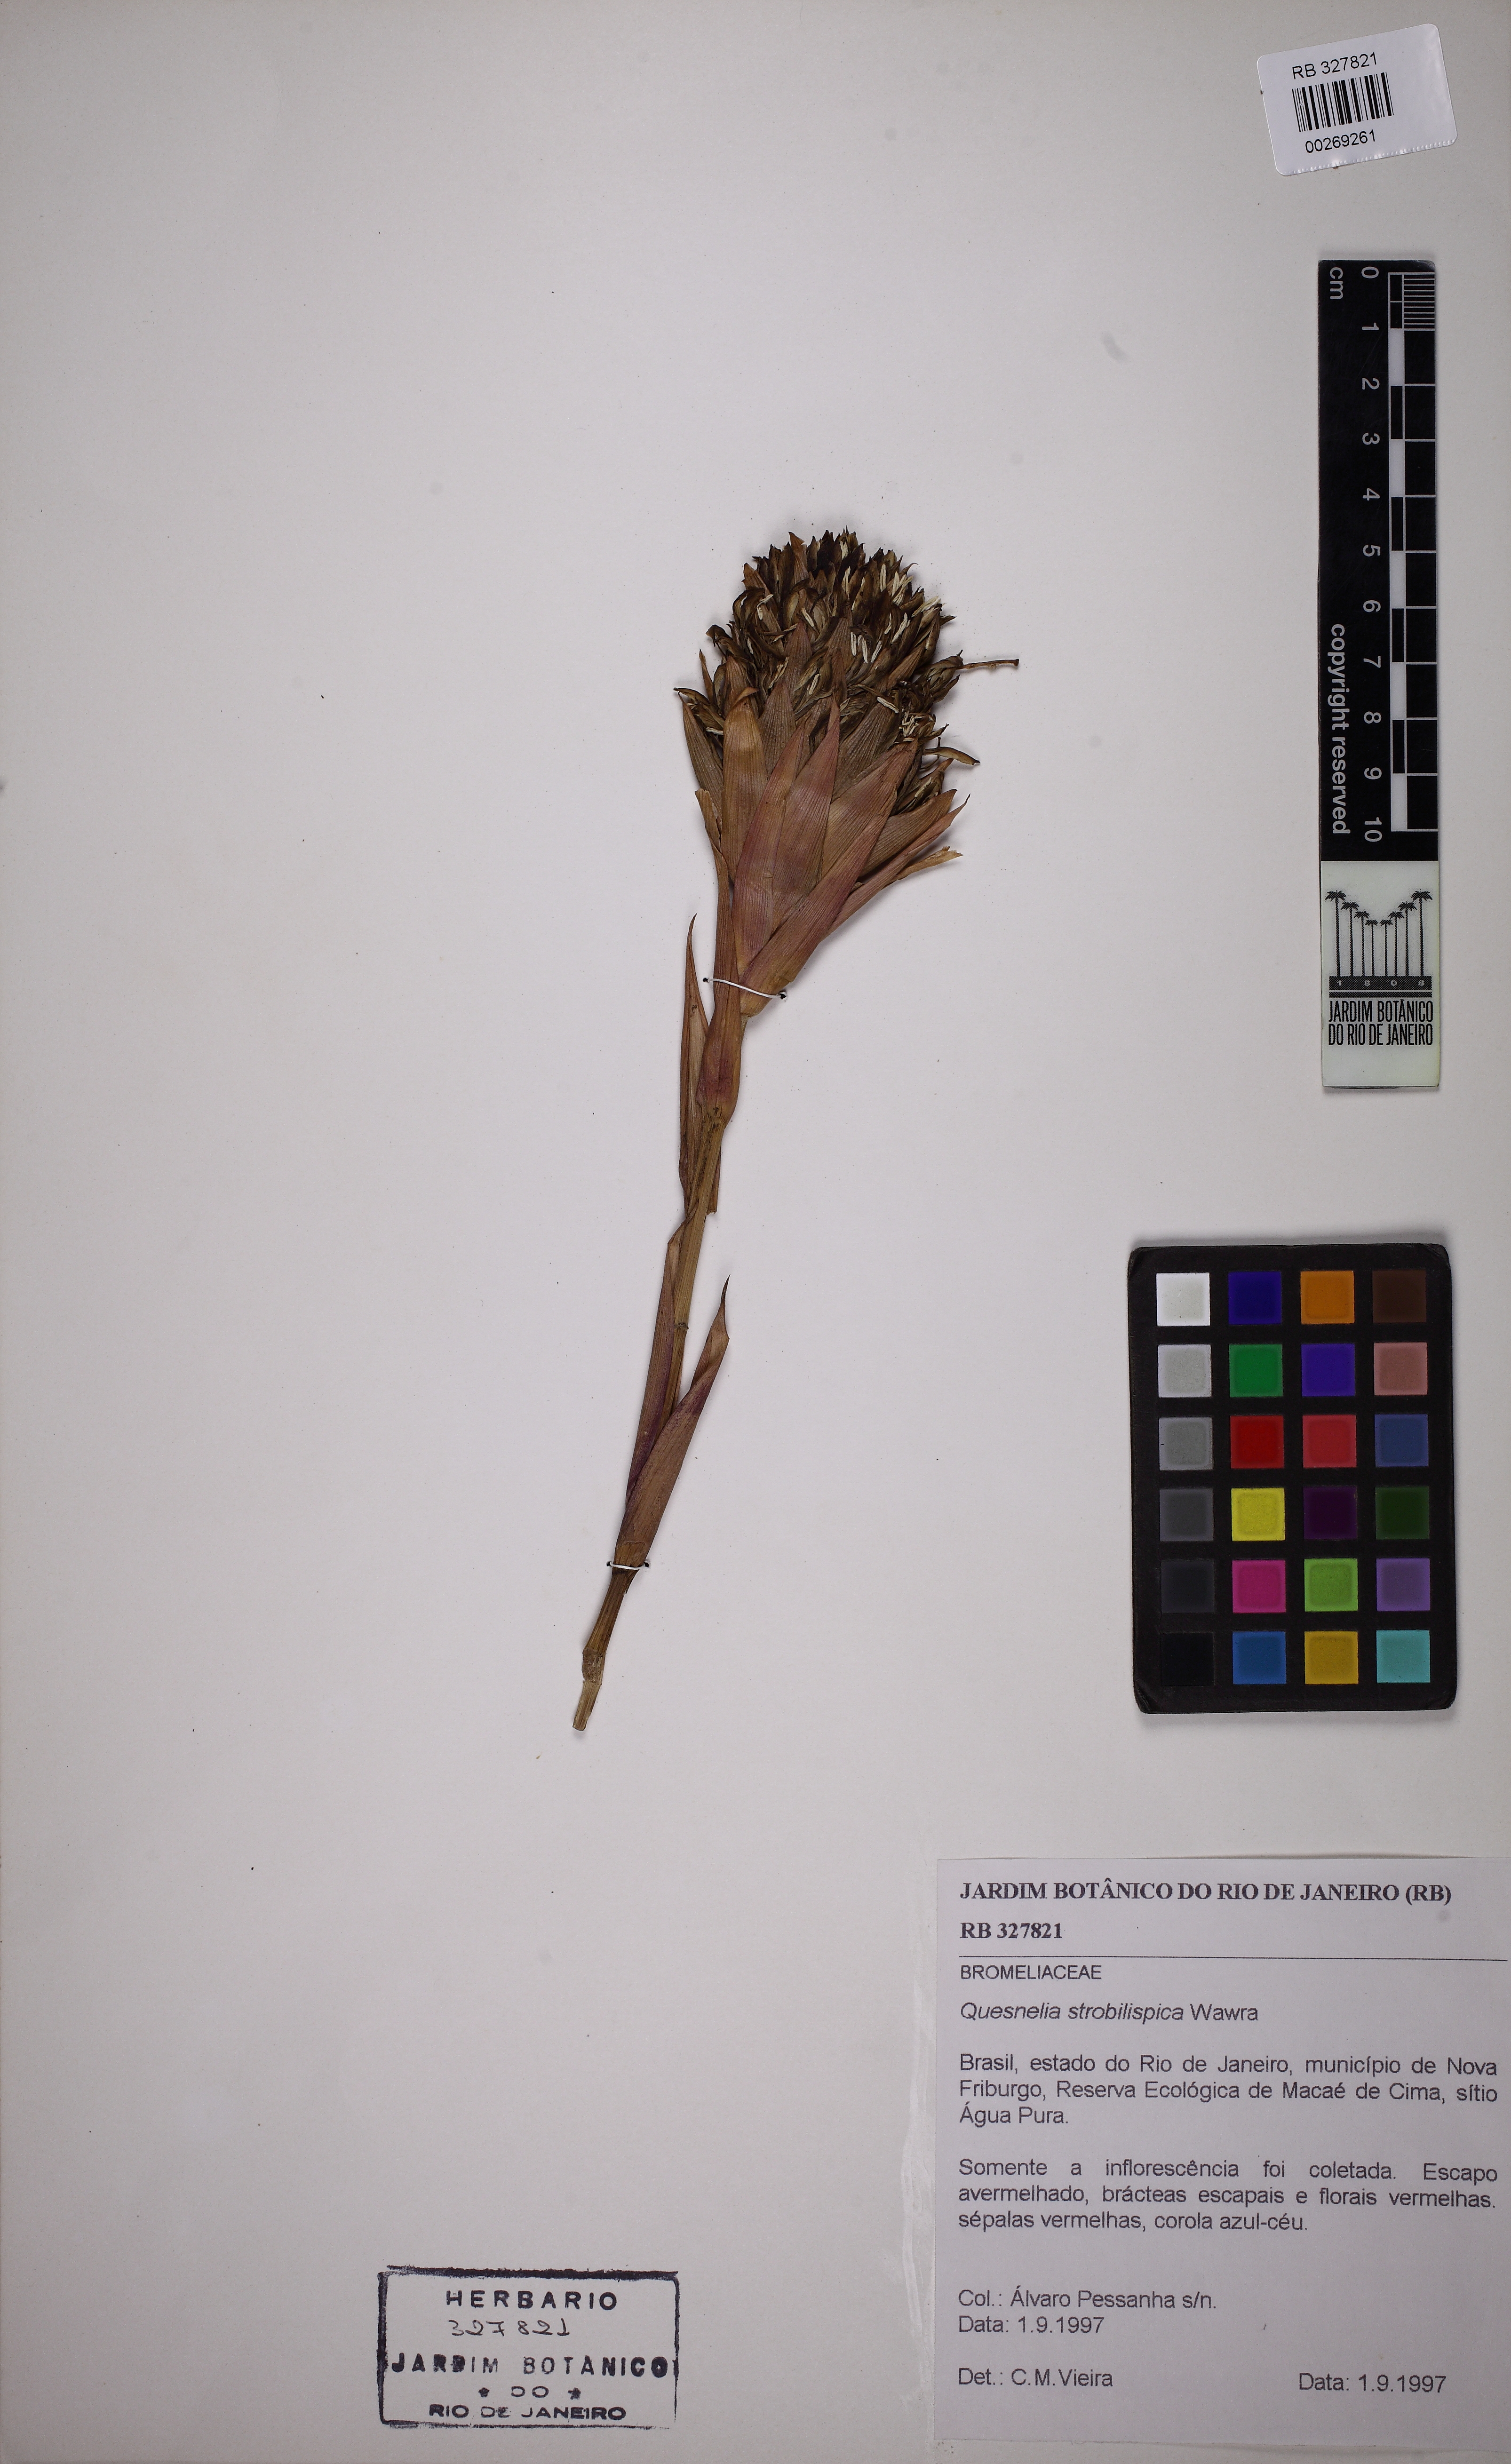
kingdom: Plantae
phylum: Tracheophyta
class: Liliopsida
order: Poales
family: Bromeliaceae
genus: Quesnelia
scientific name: Quesnelia strobilispica
